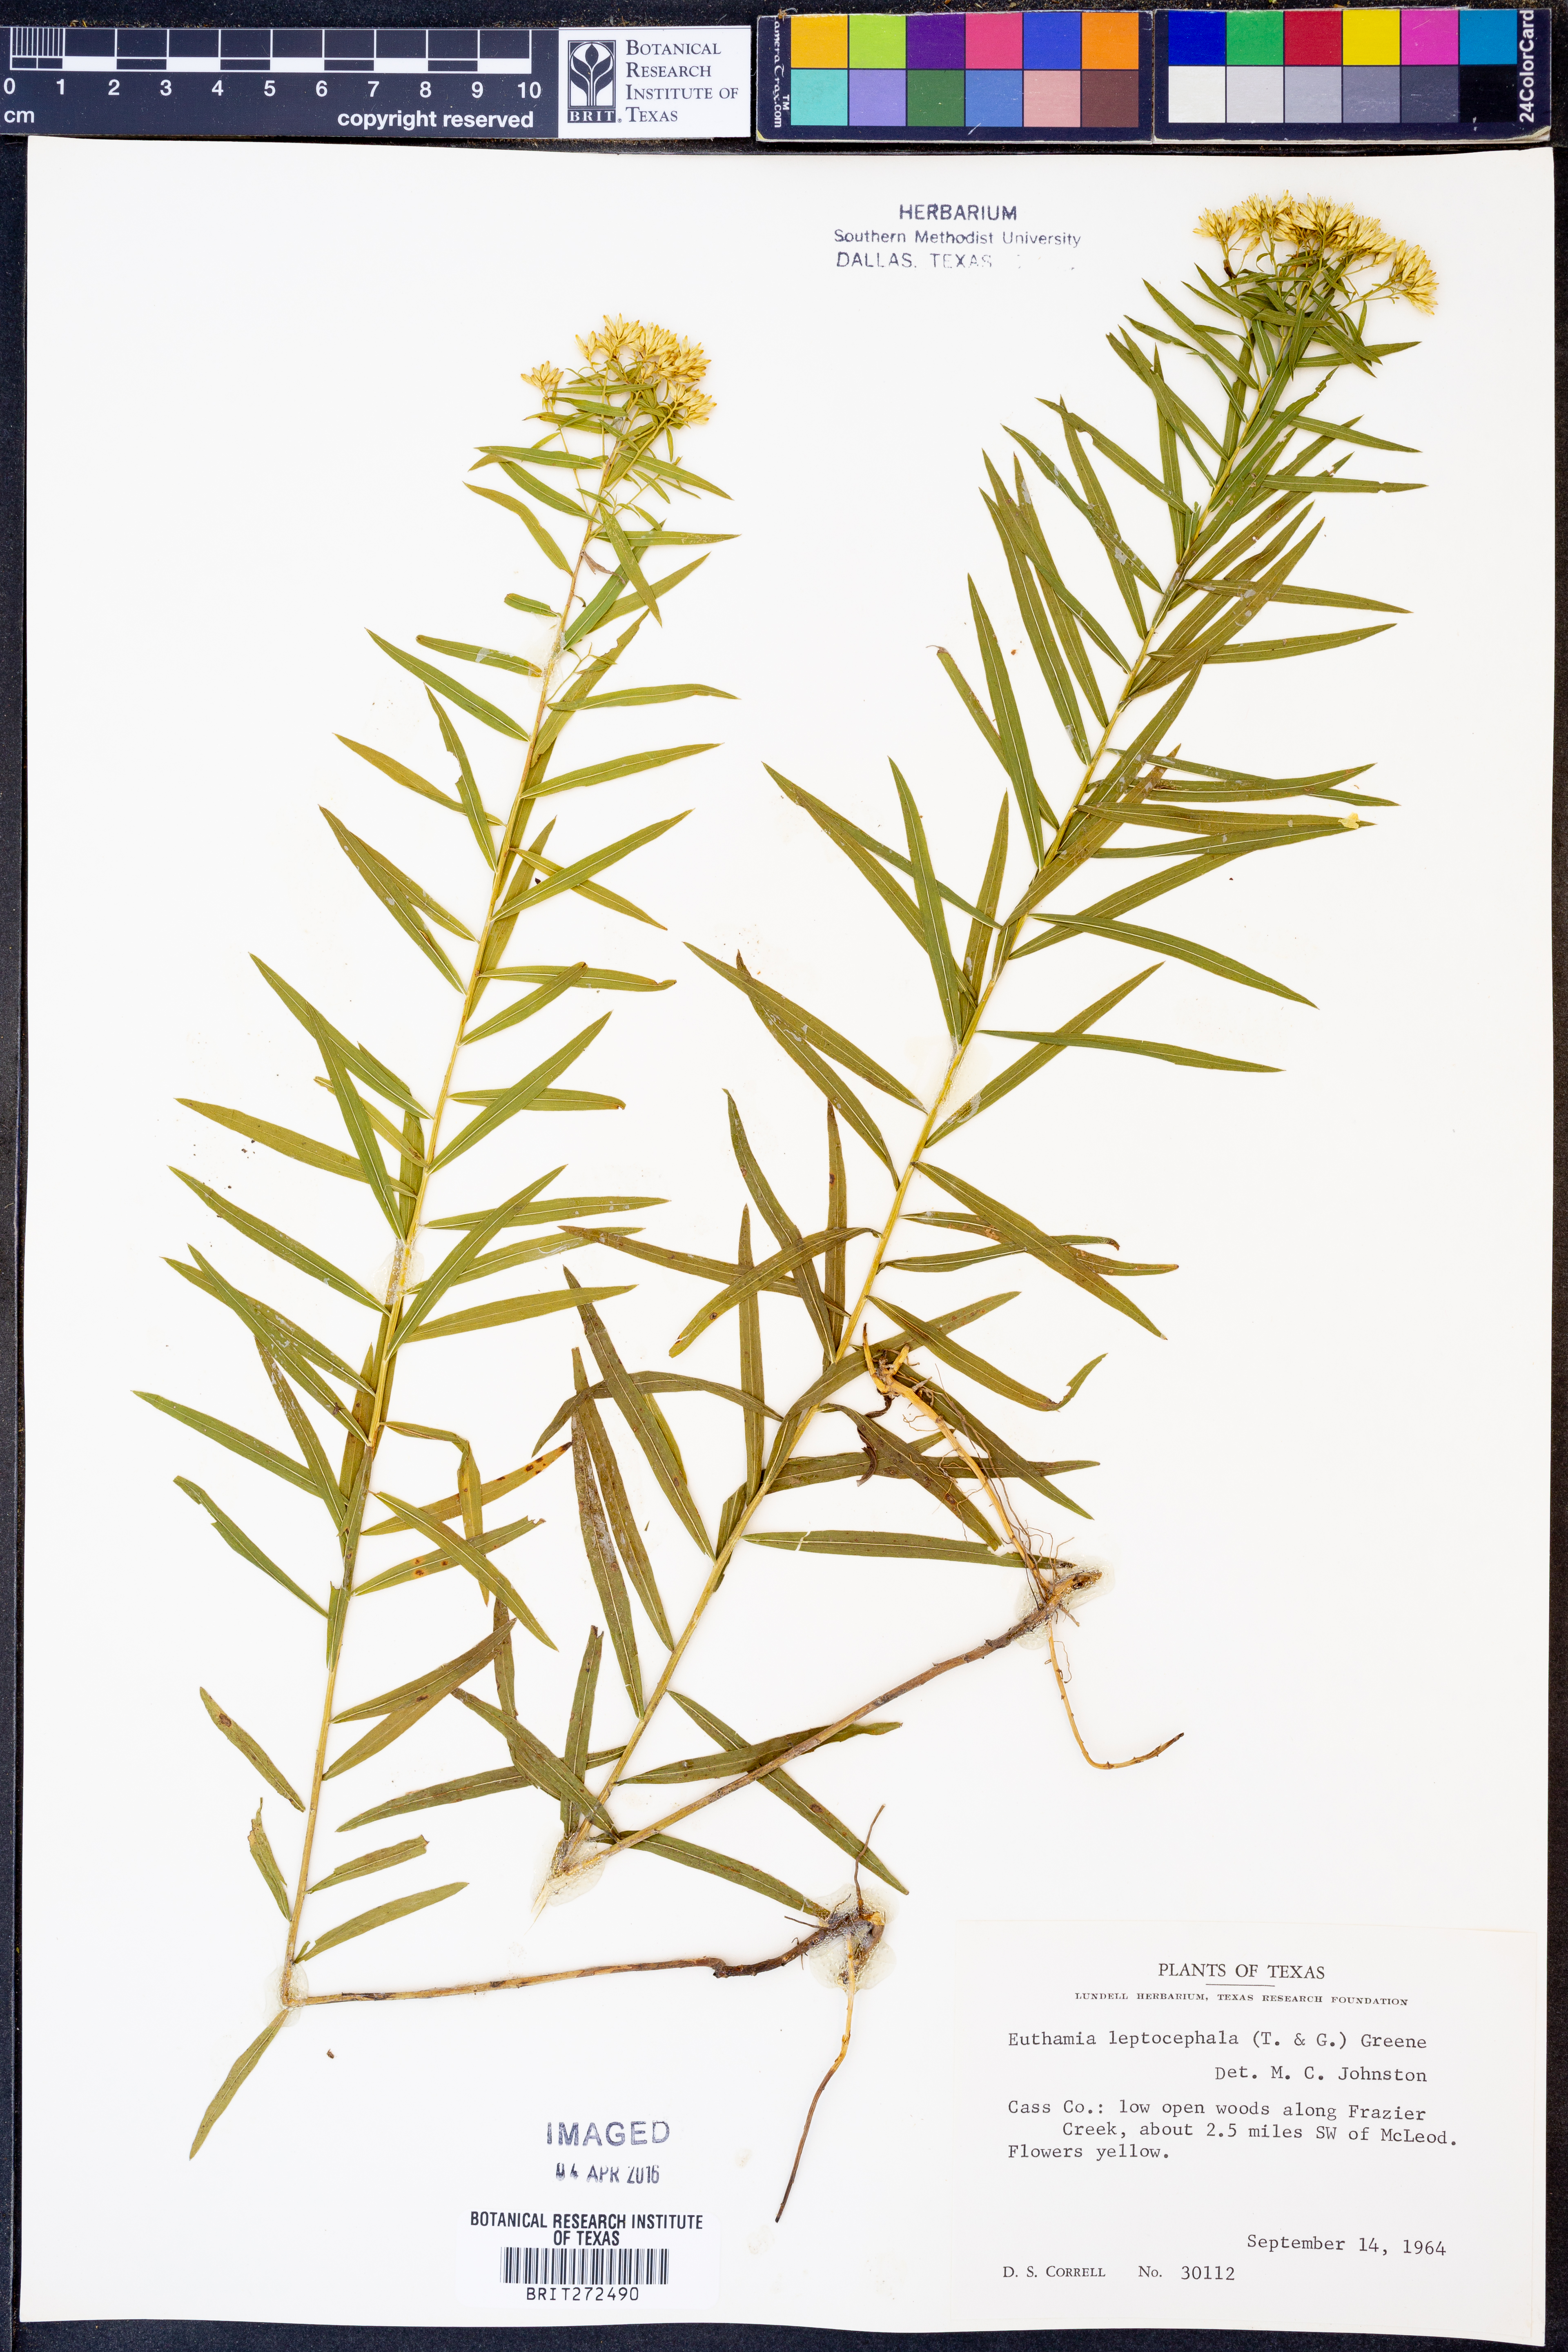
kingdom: Plantae
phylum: Tracheophyta
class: Magnoliopsida
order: Asterales
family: Asteraceae
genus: Euthamia
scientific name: Euthamia leptocephala
